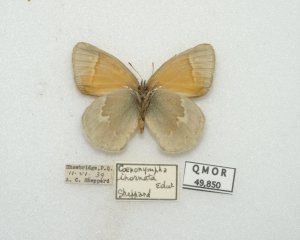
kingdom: Animalia
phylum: Arthropoda
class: Insecta
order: Lepidoptera
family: Nymphalidae
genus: Coenonympha
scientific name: Coenonympha tullia
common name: Large Heath
